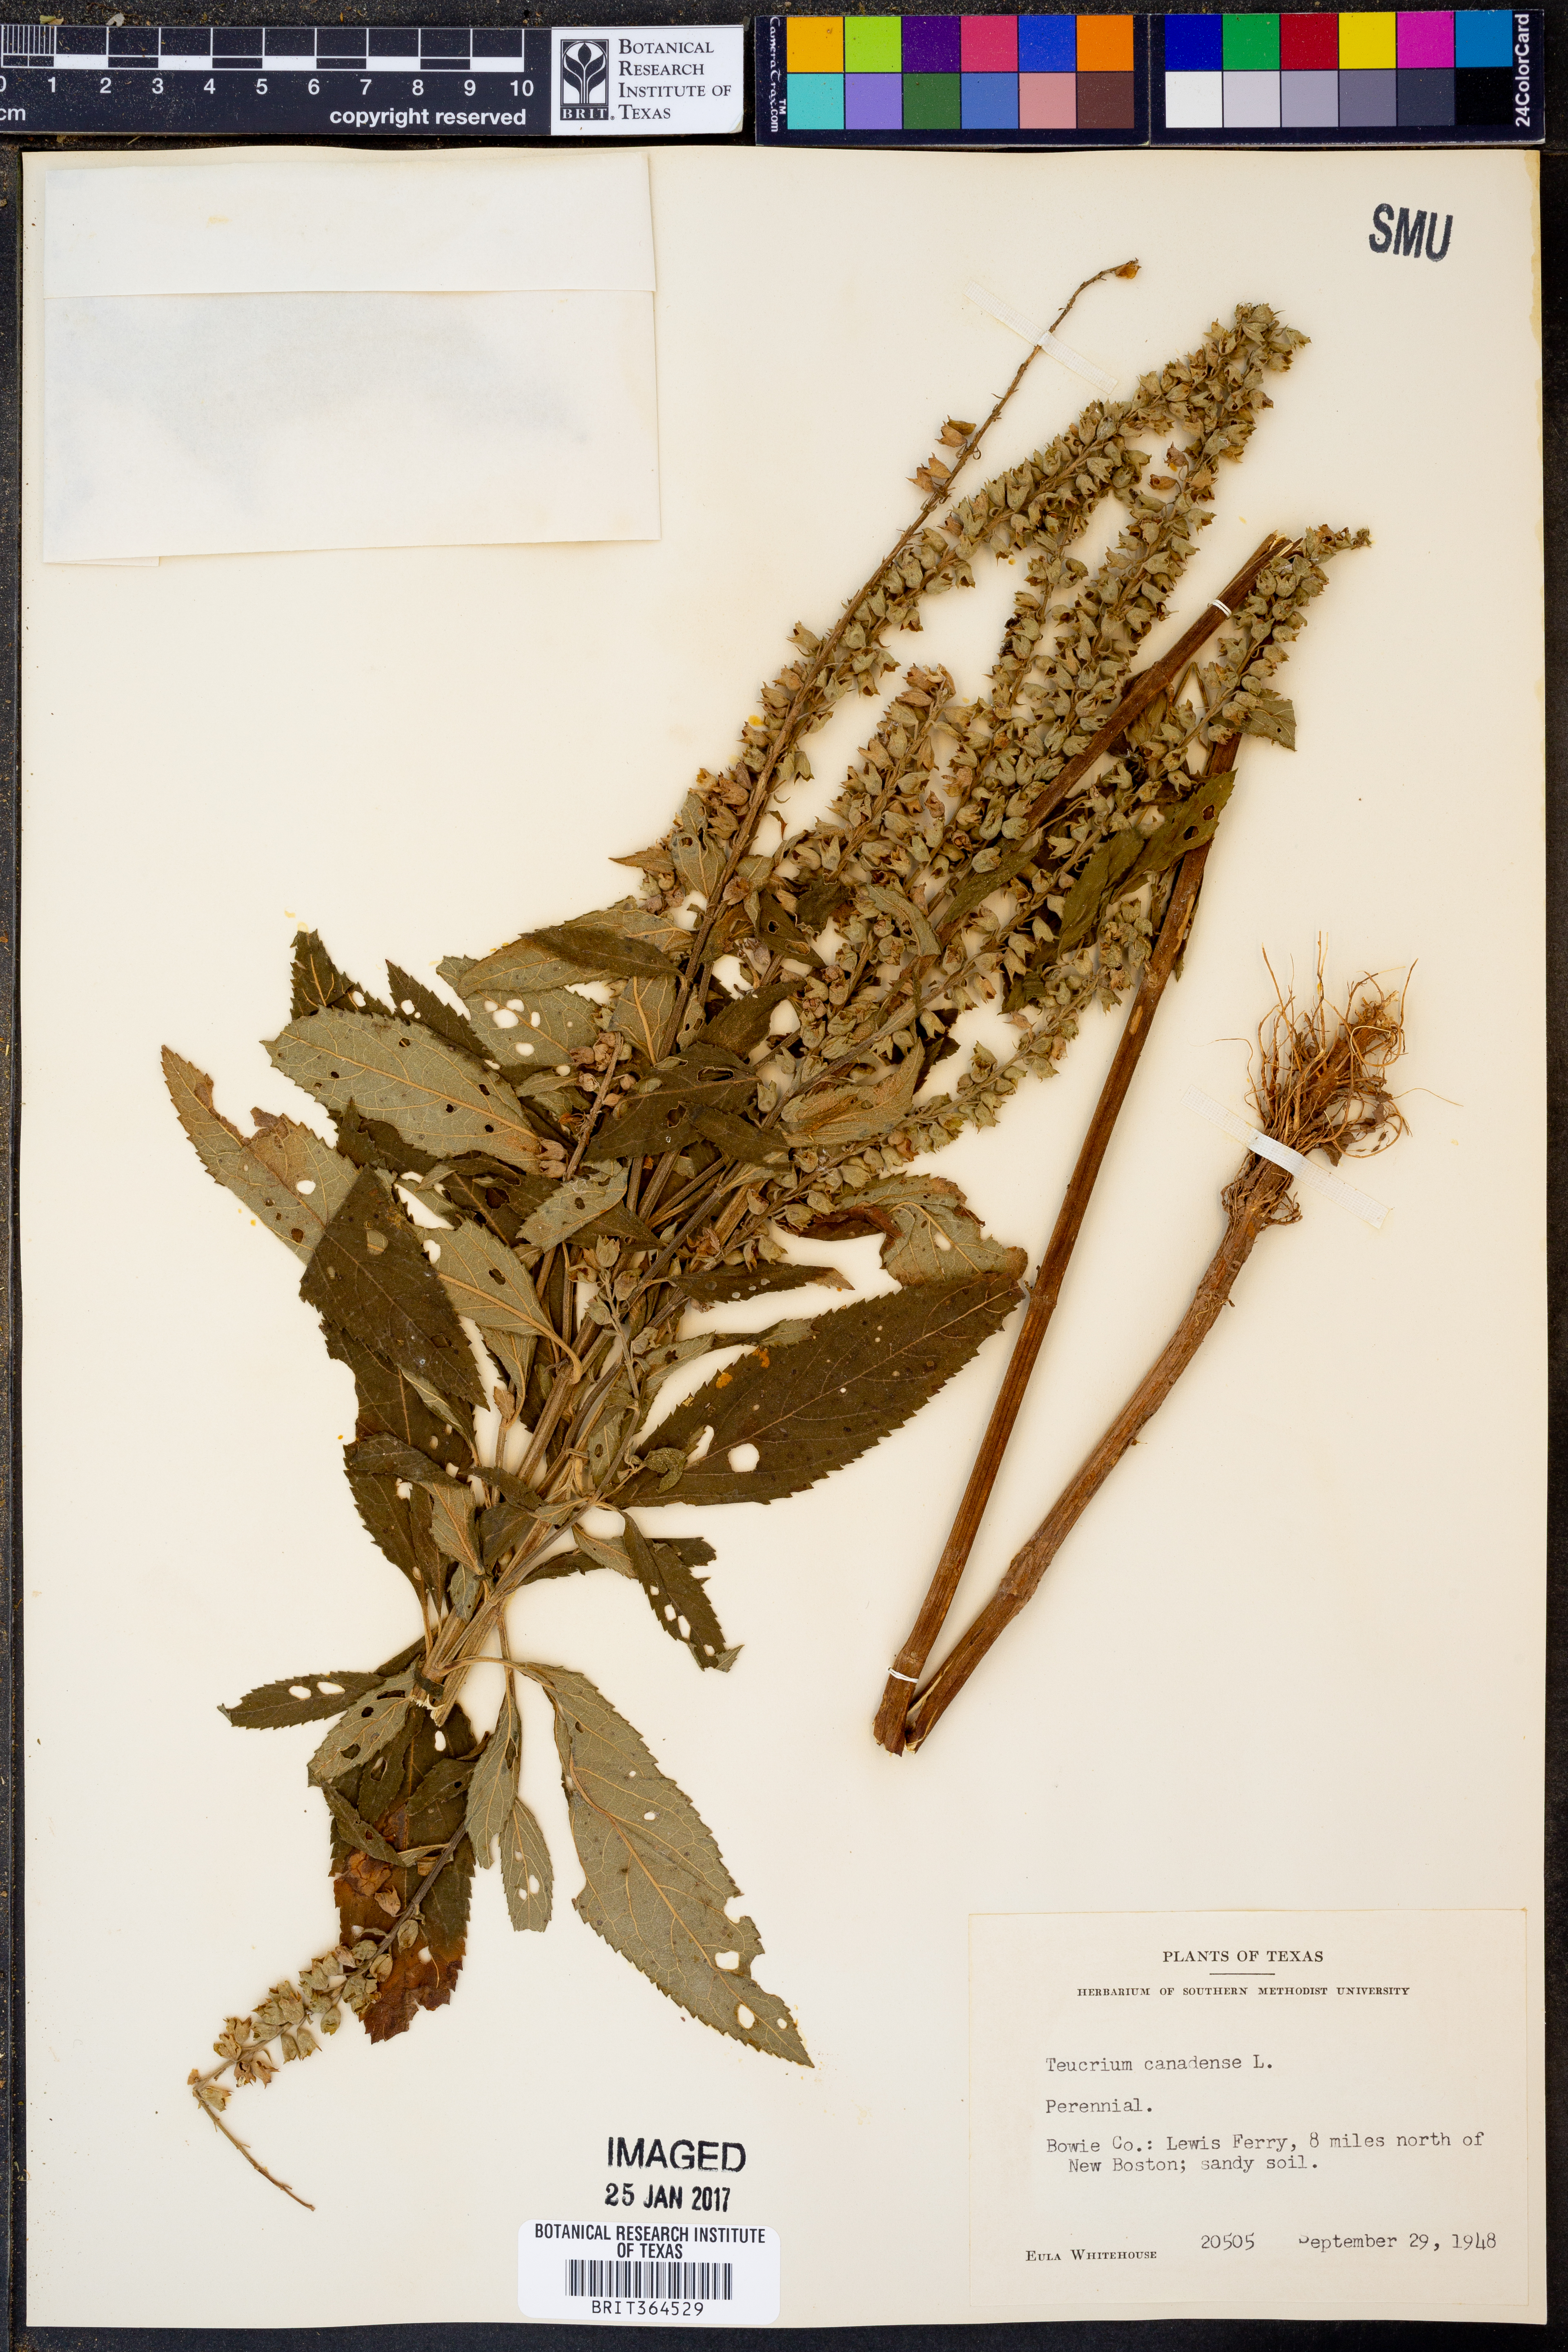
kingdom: Plantae
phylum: Tracheophyta
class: Magnoliopsida
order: Lamiales
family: Lamiaceae
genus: Teucrium
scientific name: Teucrium canadense
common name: American germander
